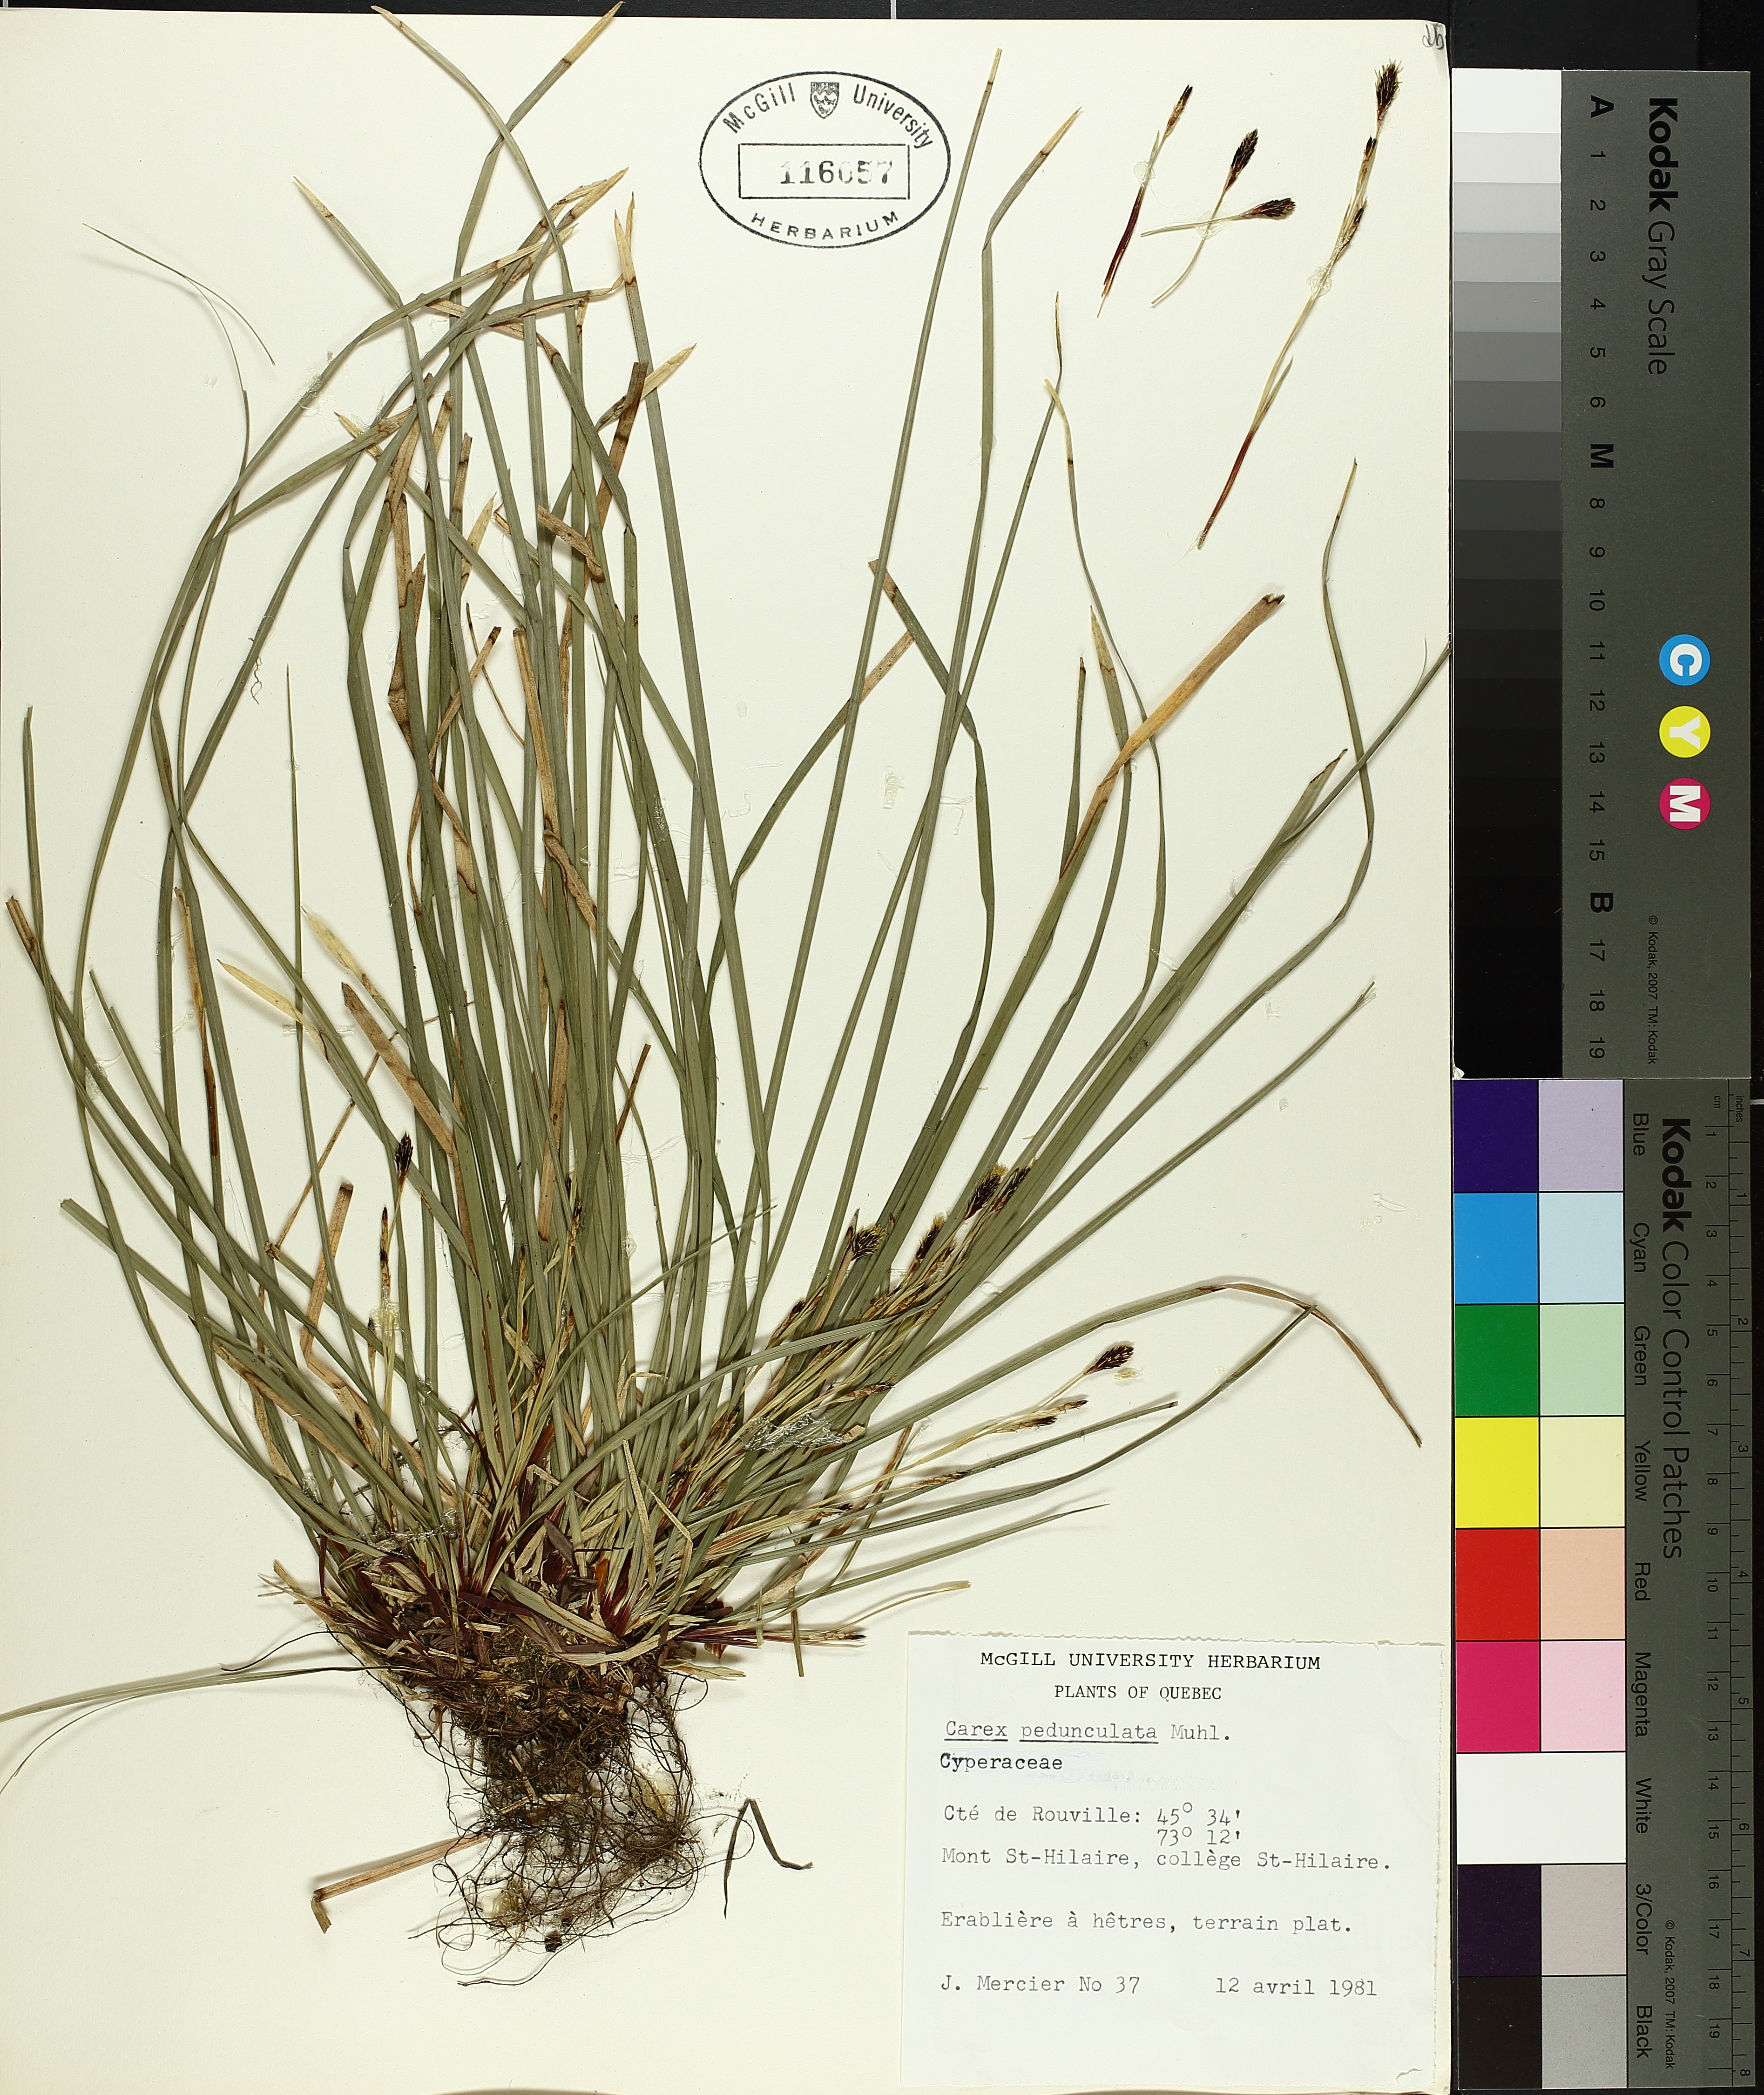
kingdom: Plantae
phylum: Tracheophyta
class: Liliopsida
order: Poales
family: Cyperaceae
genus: Carex
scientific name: Carex pedunculata
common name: Pedunculate sedge
